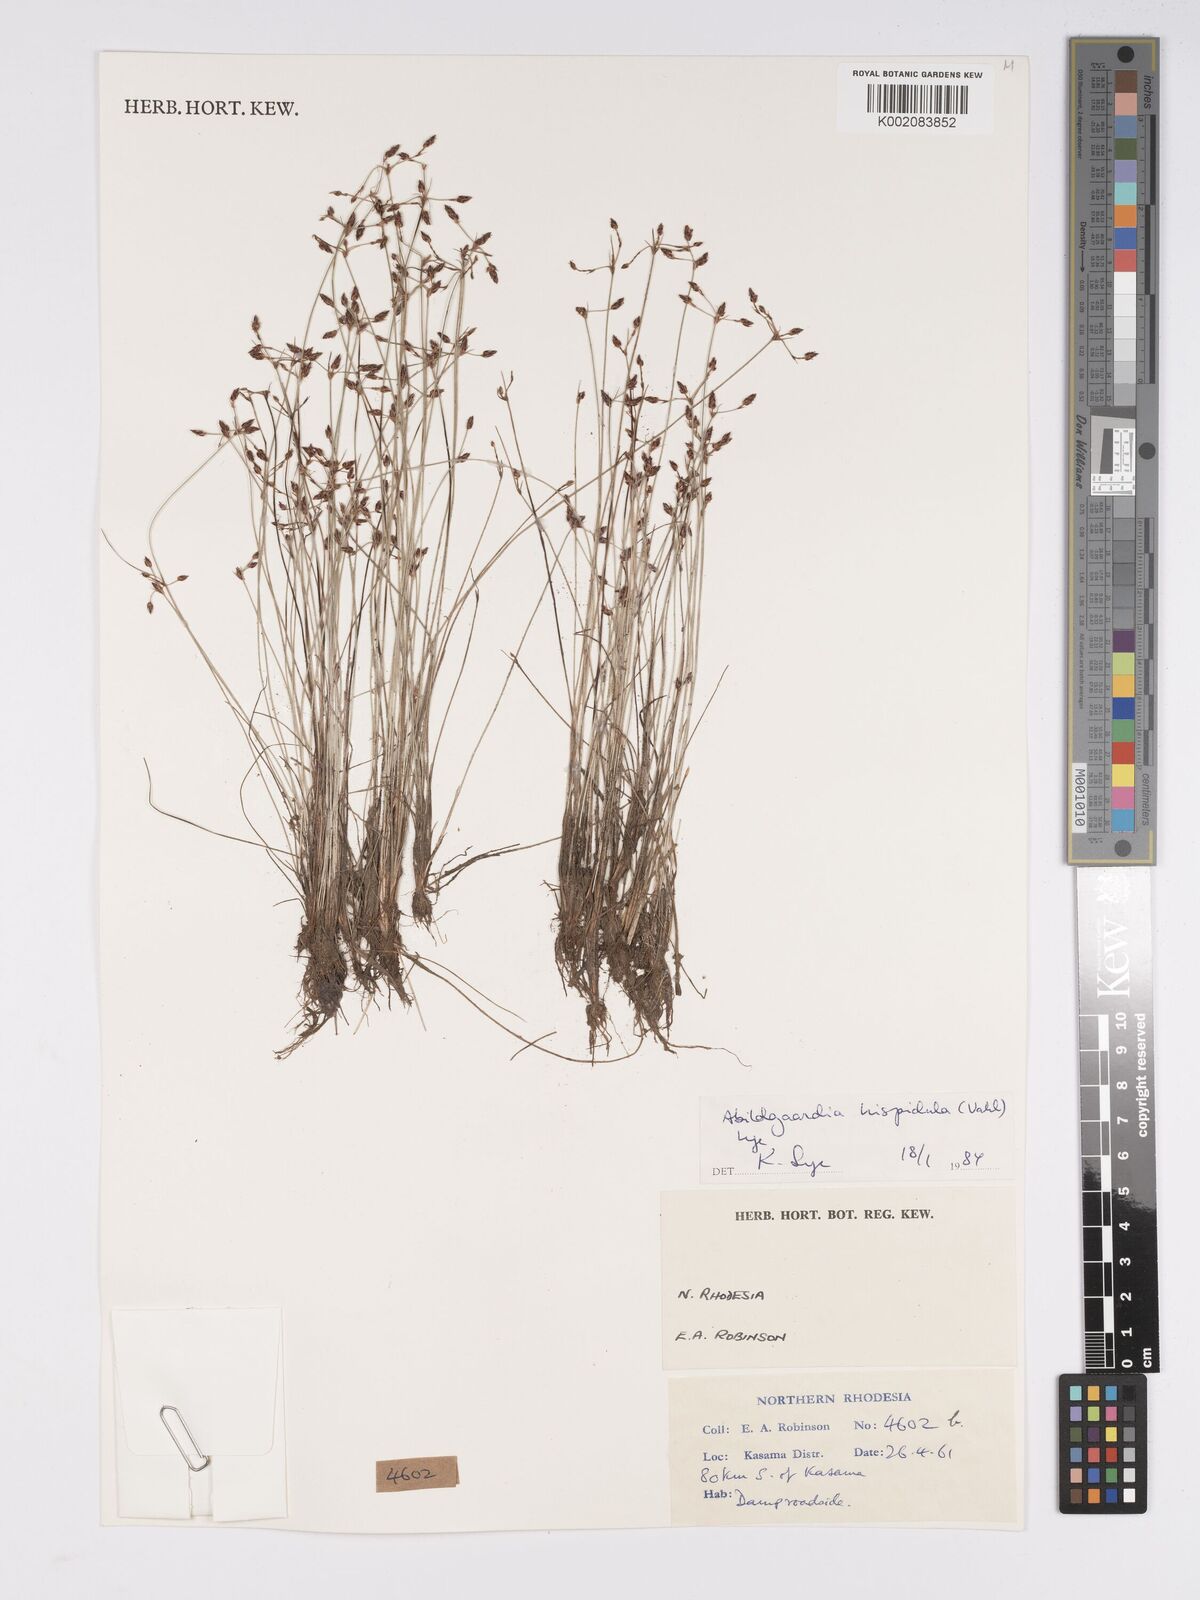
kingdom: Plantae
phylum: Tracheophyta
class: Liliopsida
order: Poales
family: Cyperaceae
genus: Bulbostylis
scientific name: Bulbostylis hispidula
